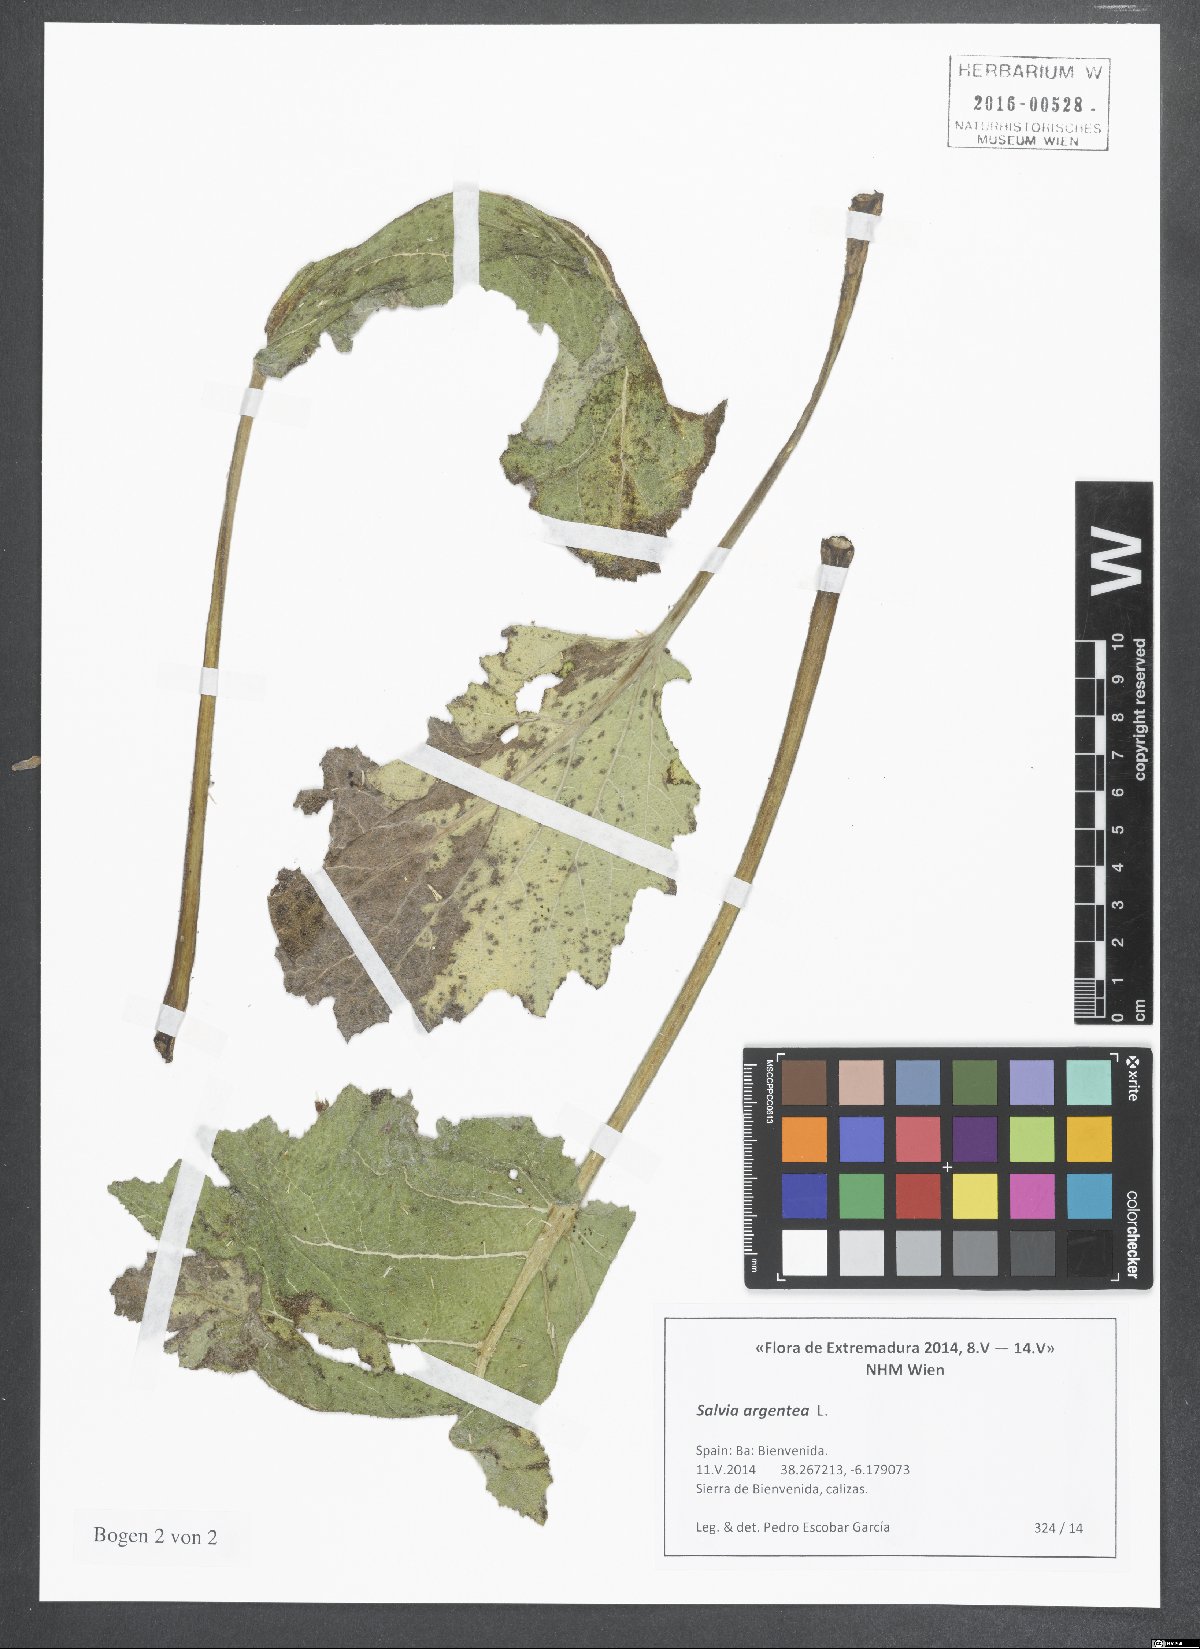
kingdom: Plantae
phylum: Tracheophyta
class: Magnoliopsida
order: Lamiales
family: Lamiaceae
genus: Salvia
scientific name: Salvia argentea
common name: Silver sage
